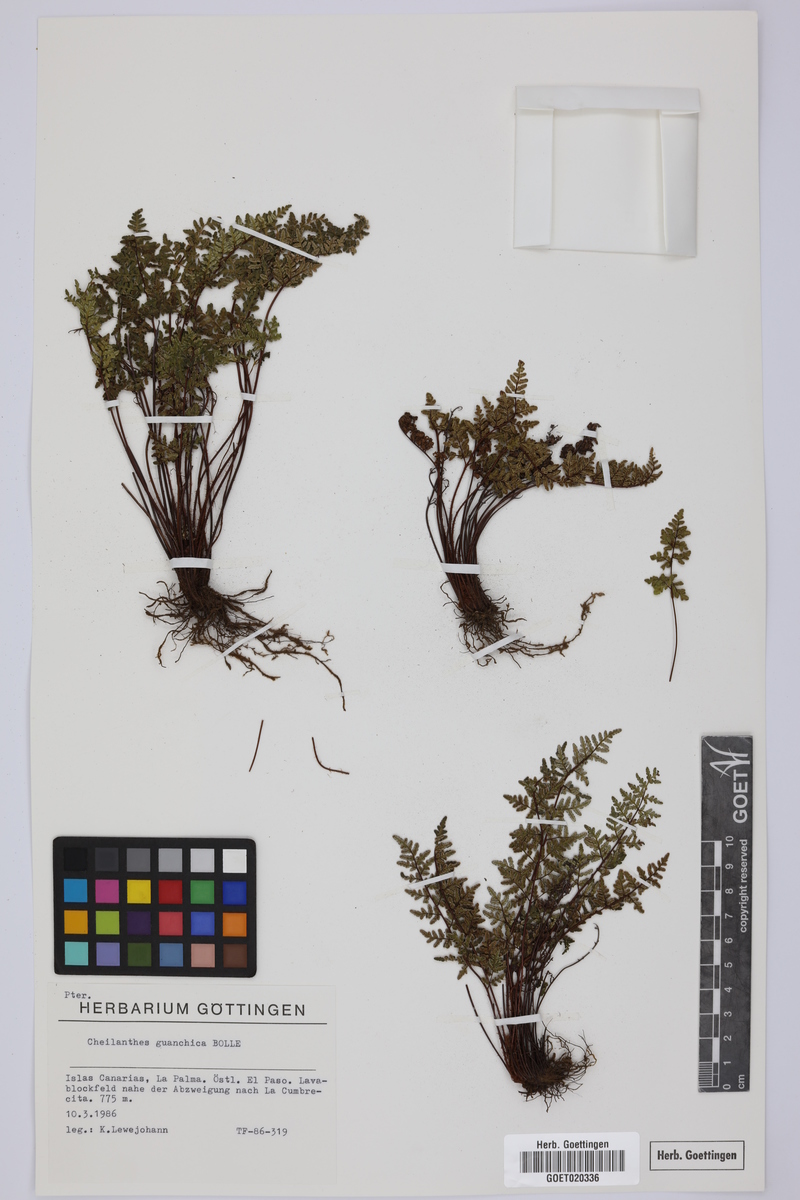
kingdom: Plantae
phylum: Tracheophyta
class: Polypodiopsida
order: Polypodiales
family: Pteridaceae
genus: Oeosporangium
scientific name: Oeosporangium guanchicum
